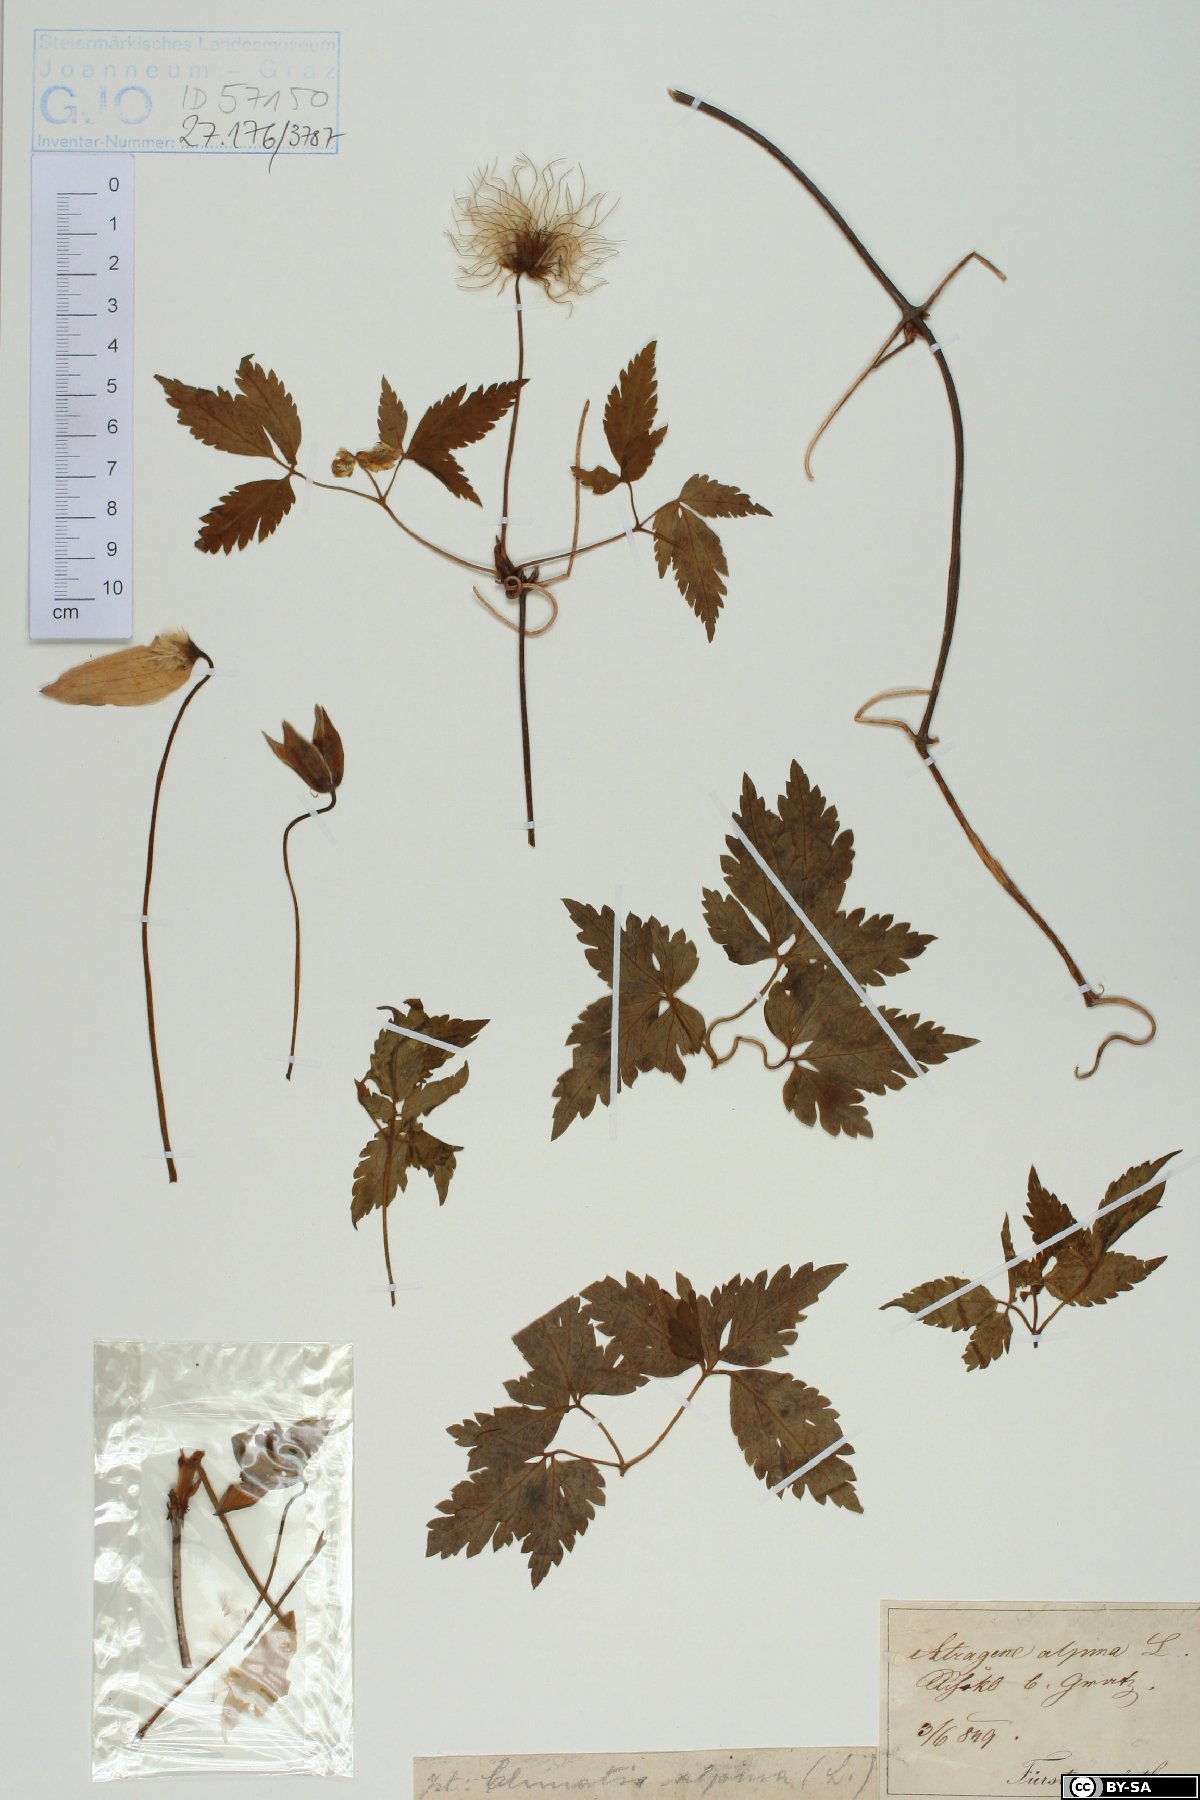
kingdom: Plantae
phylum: Tracheophyta
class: Magnoliopsida
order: Ranunculales
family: Ranunculaceae
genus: Clematis
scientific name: Clematis alpina
